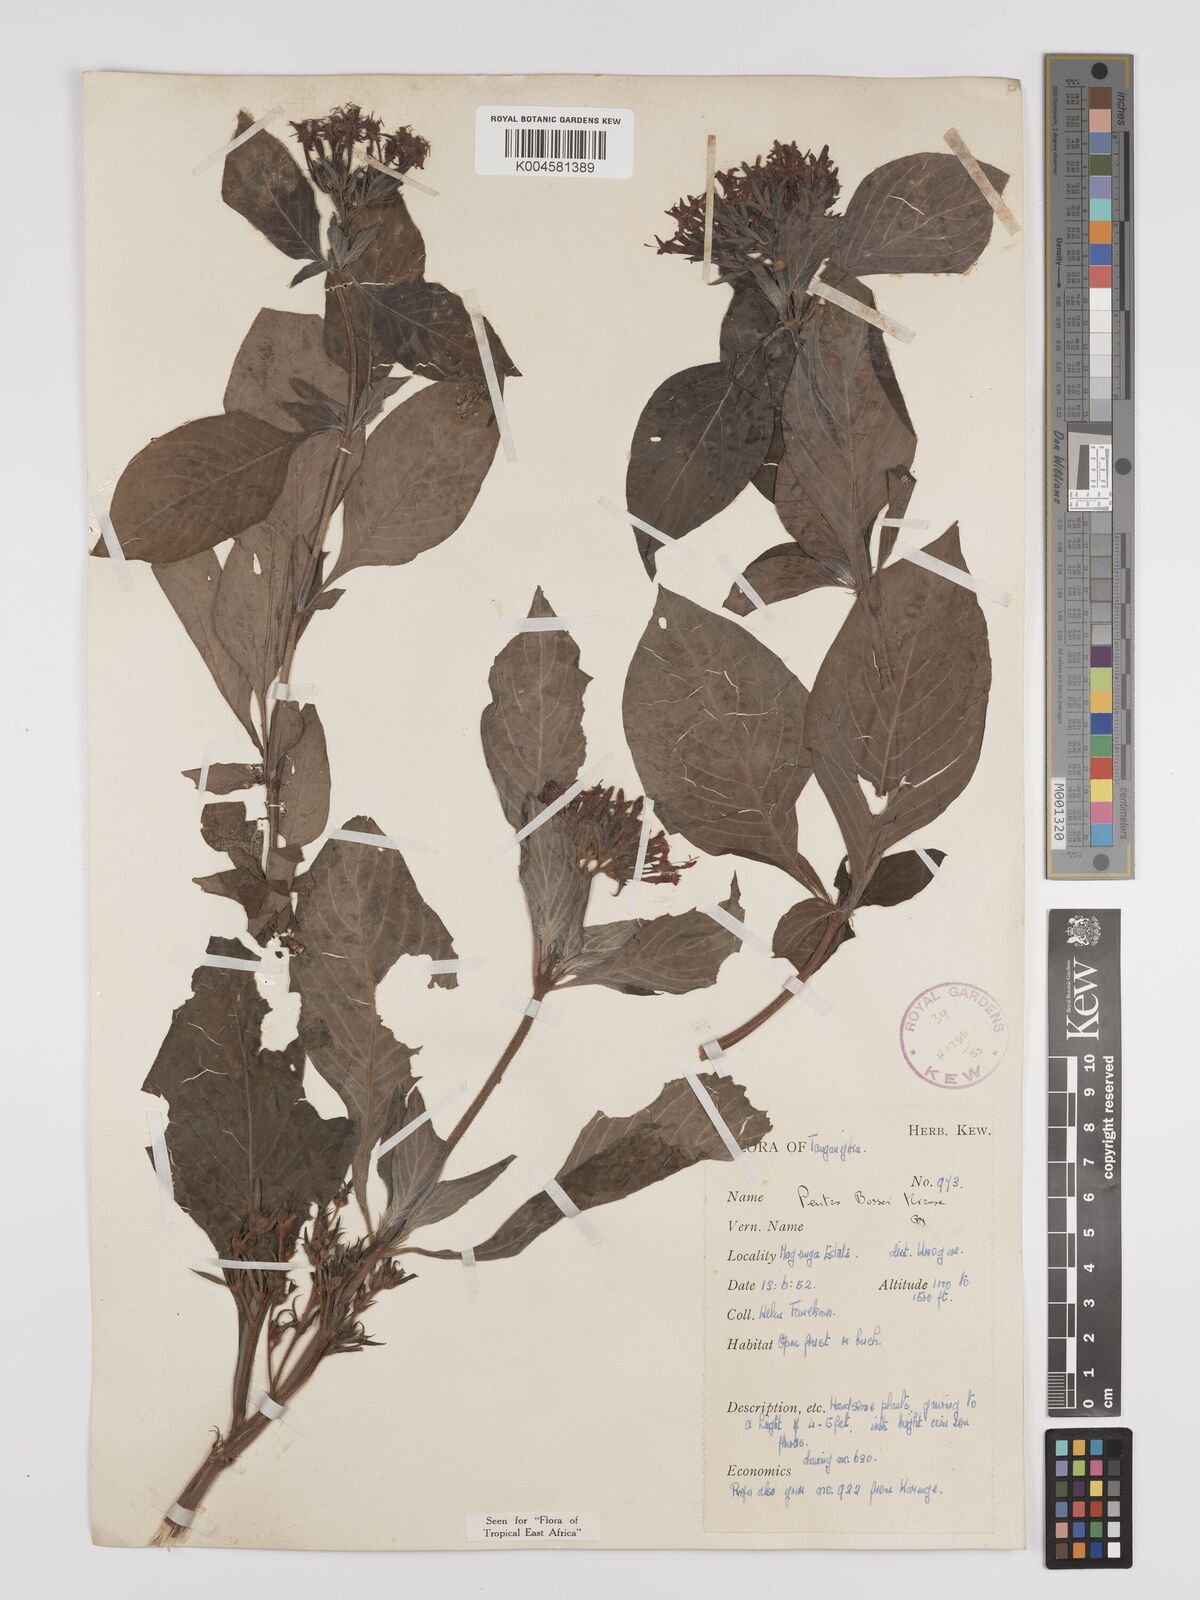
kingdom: Plantae
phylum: Tracheophyta
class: Magnoliopsida
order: Gentianales
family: Rubiaceae
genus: Rhodopentas
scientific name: Rhodopentas bussei
